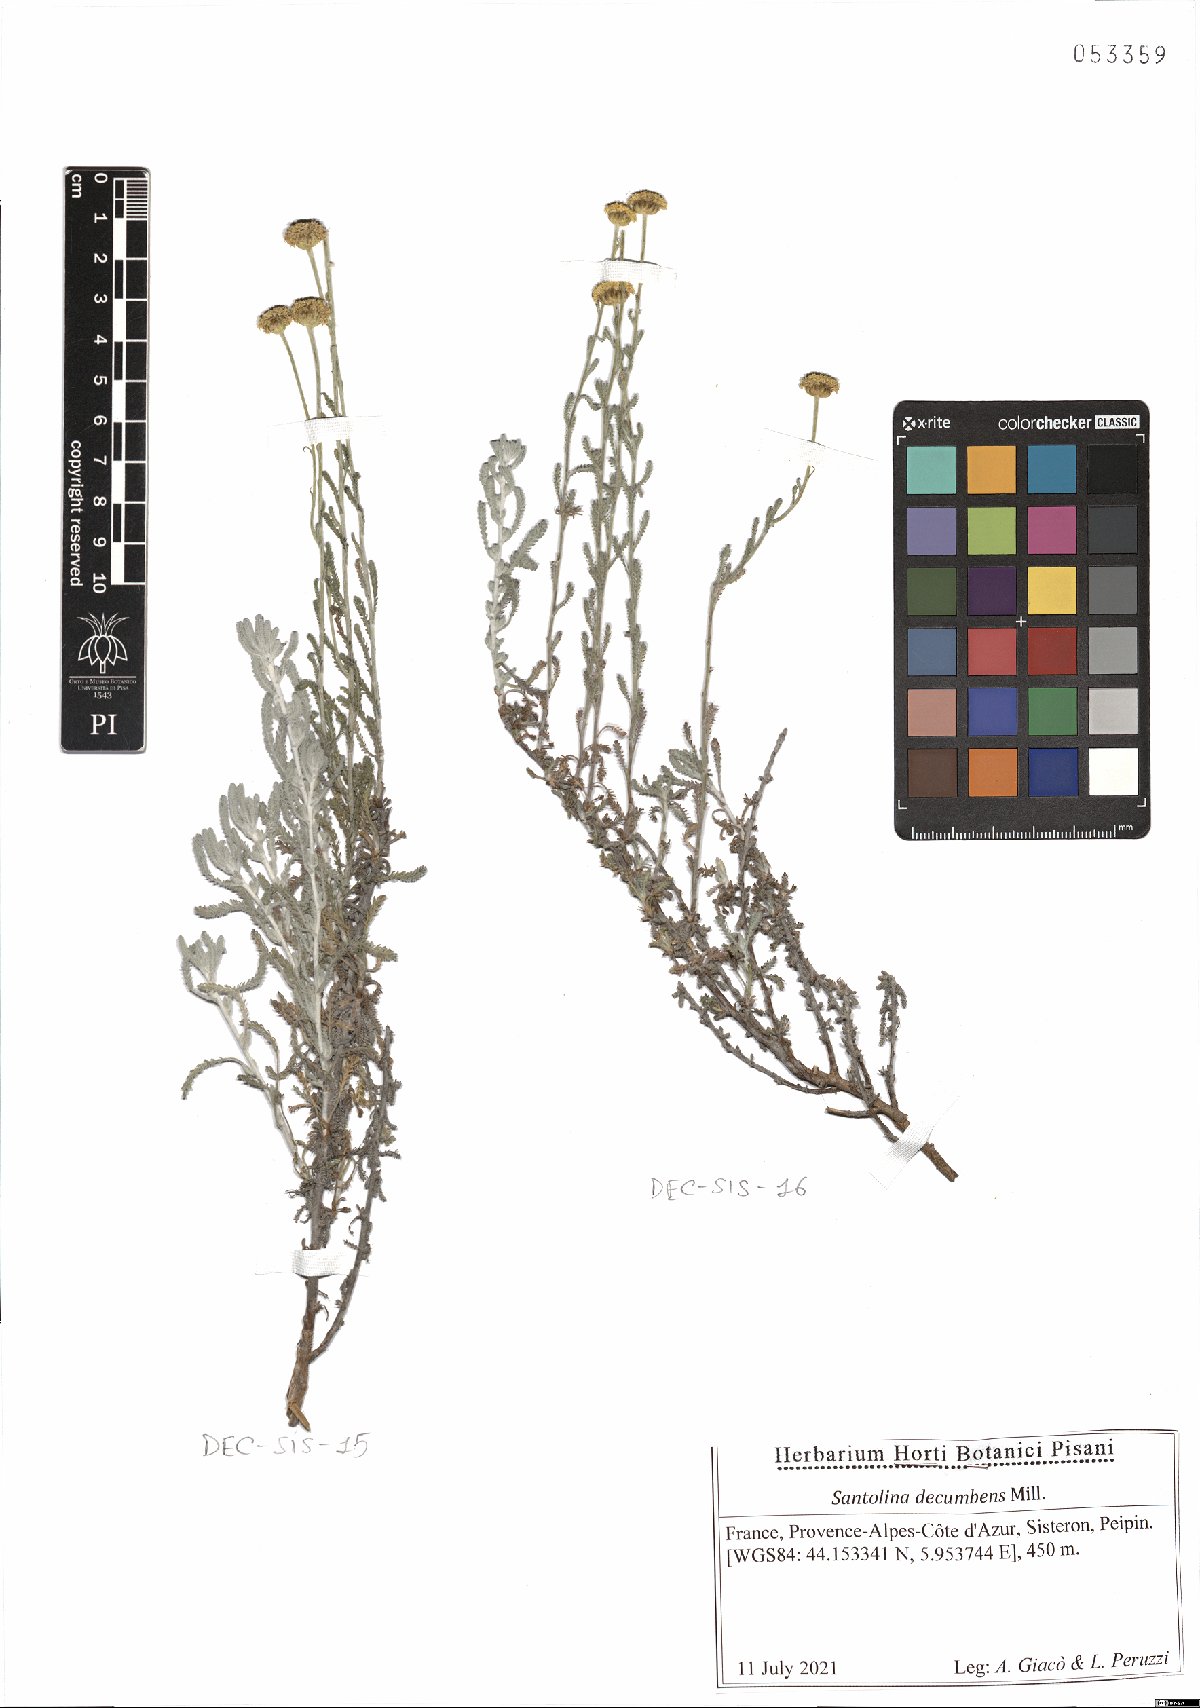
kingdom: Plantae
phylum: Tracheophyta
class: Magnoliopsida
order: Asterales
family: Asteraceae
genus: Santolina
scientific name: Santolina decumbens
